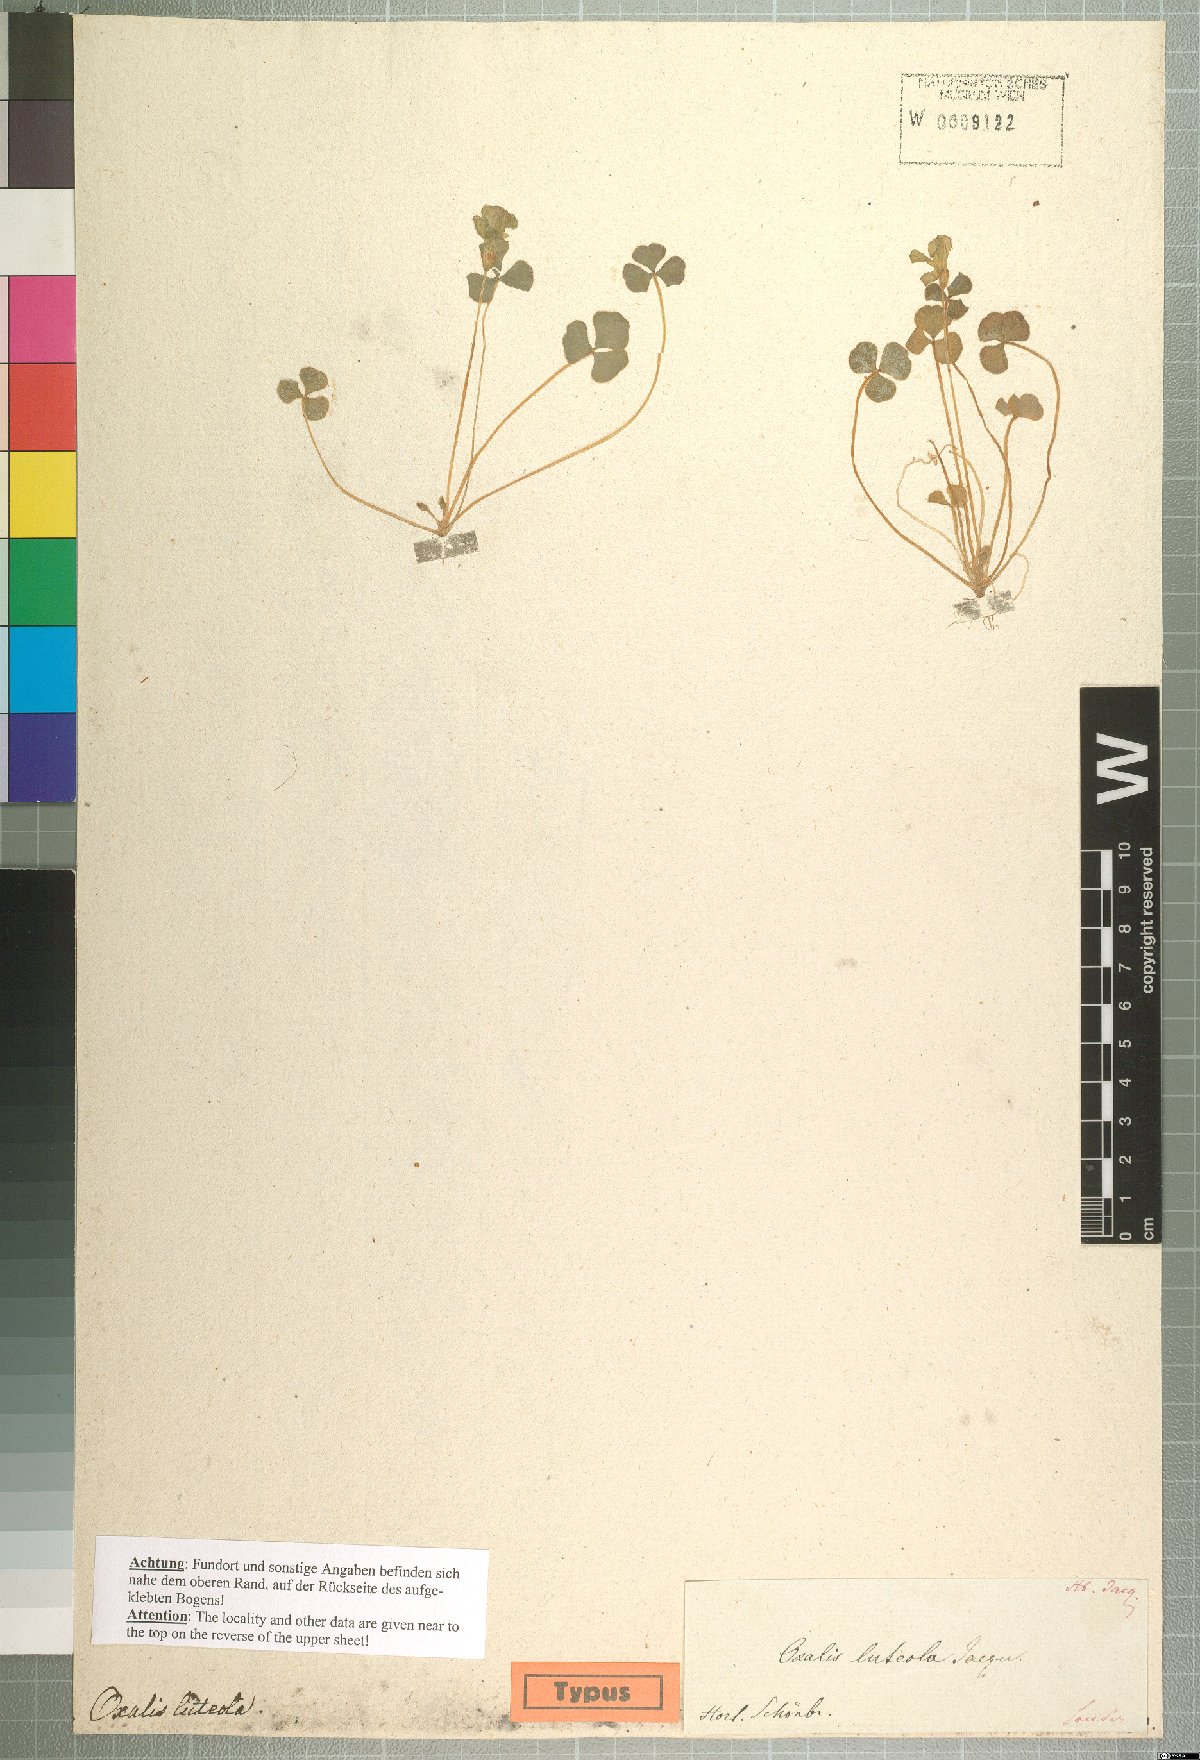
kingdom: Plantae
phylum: Tracheophyta
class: Magnoliopsida
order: Oxalidales
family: Oxalidaceae
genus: Oxalis
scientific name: Oxalis luteola
